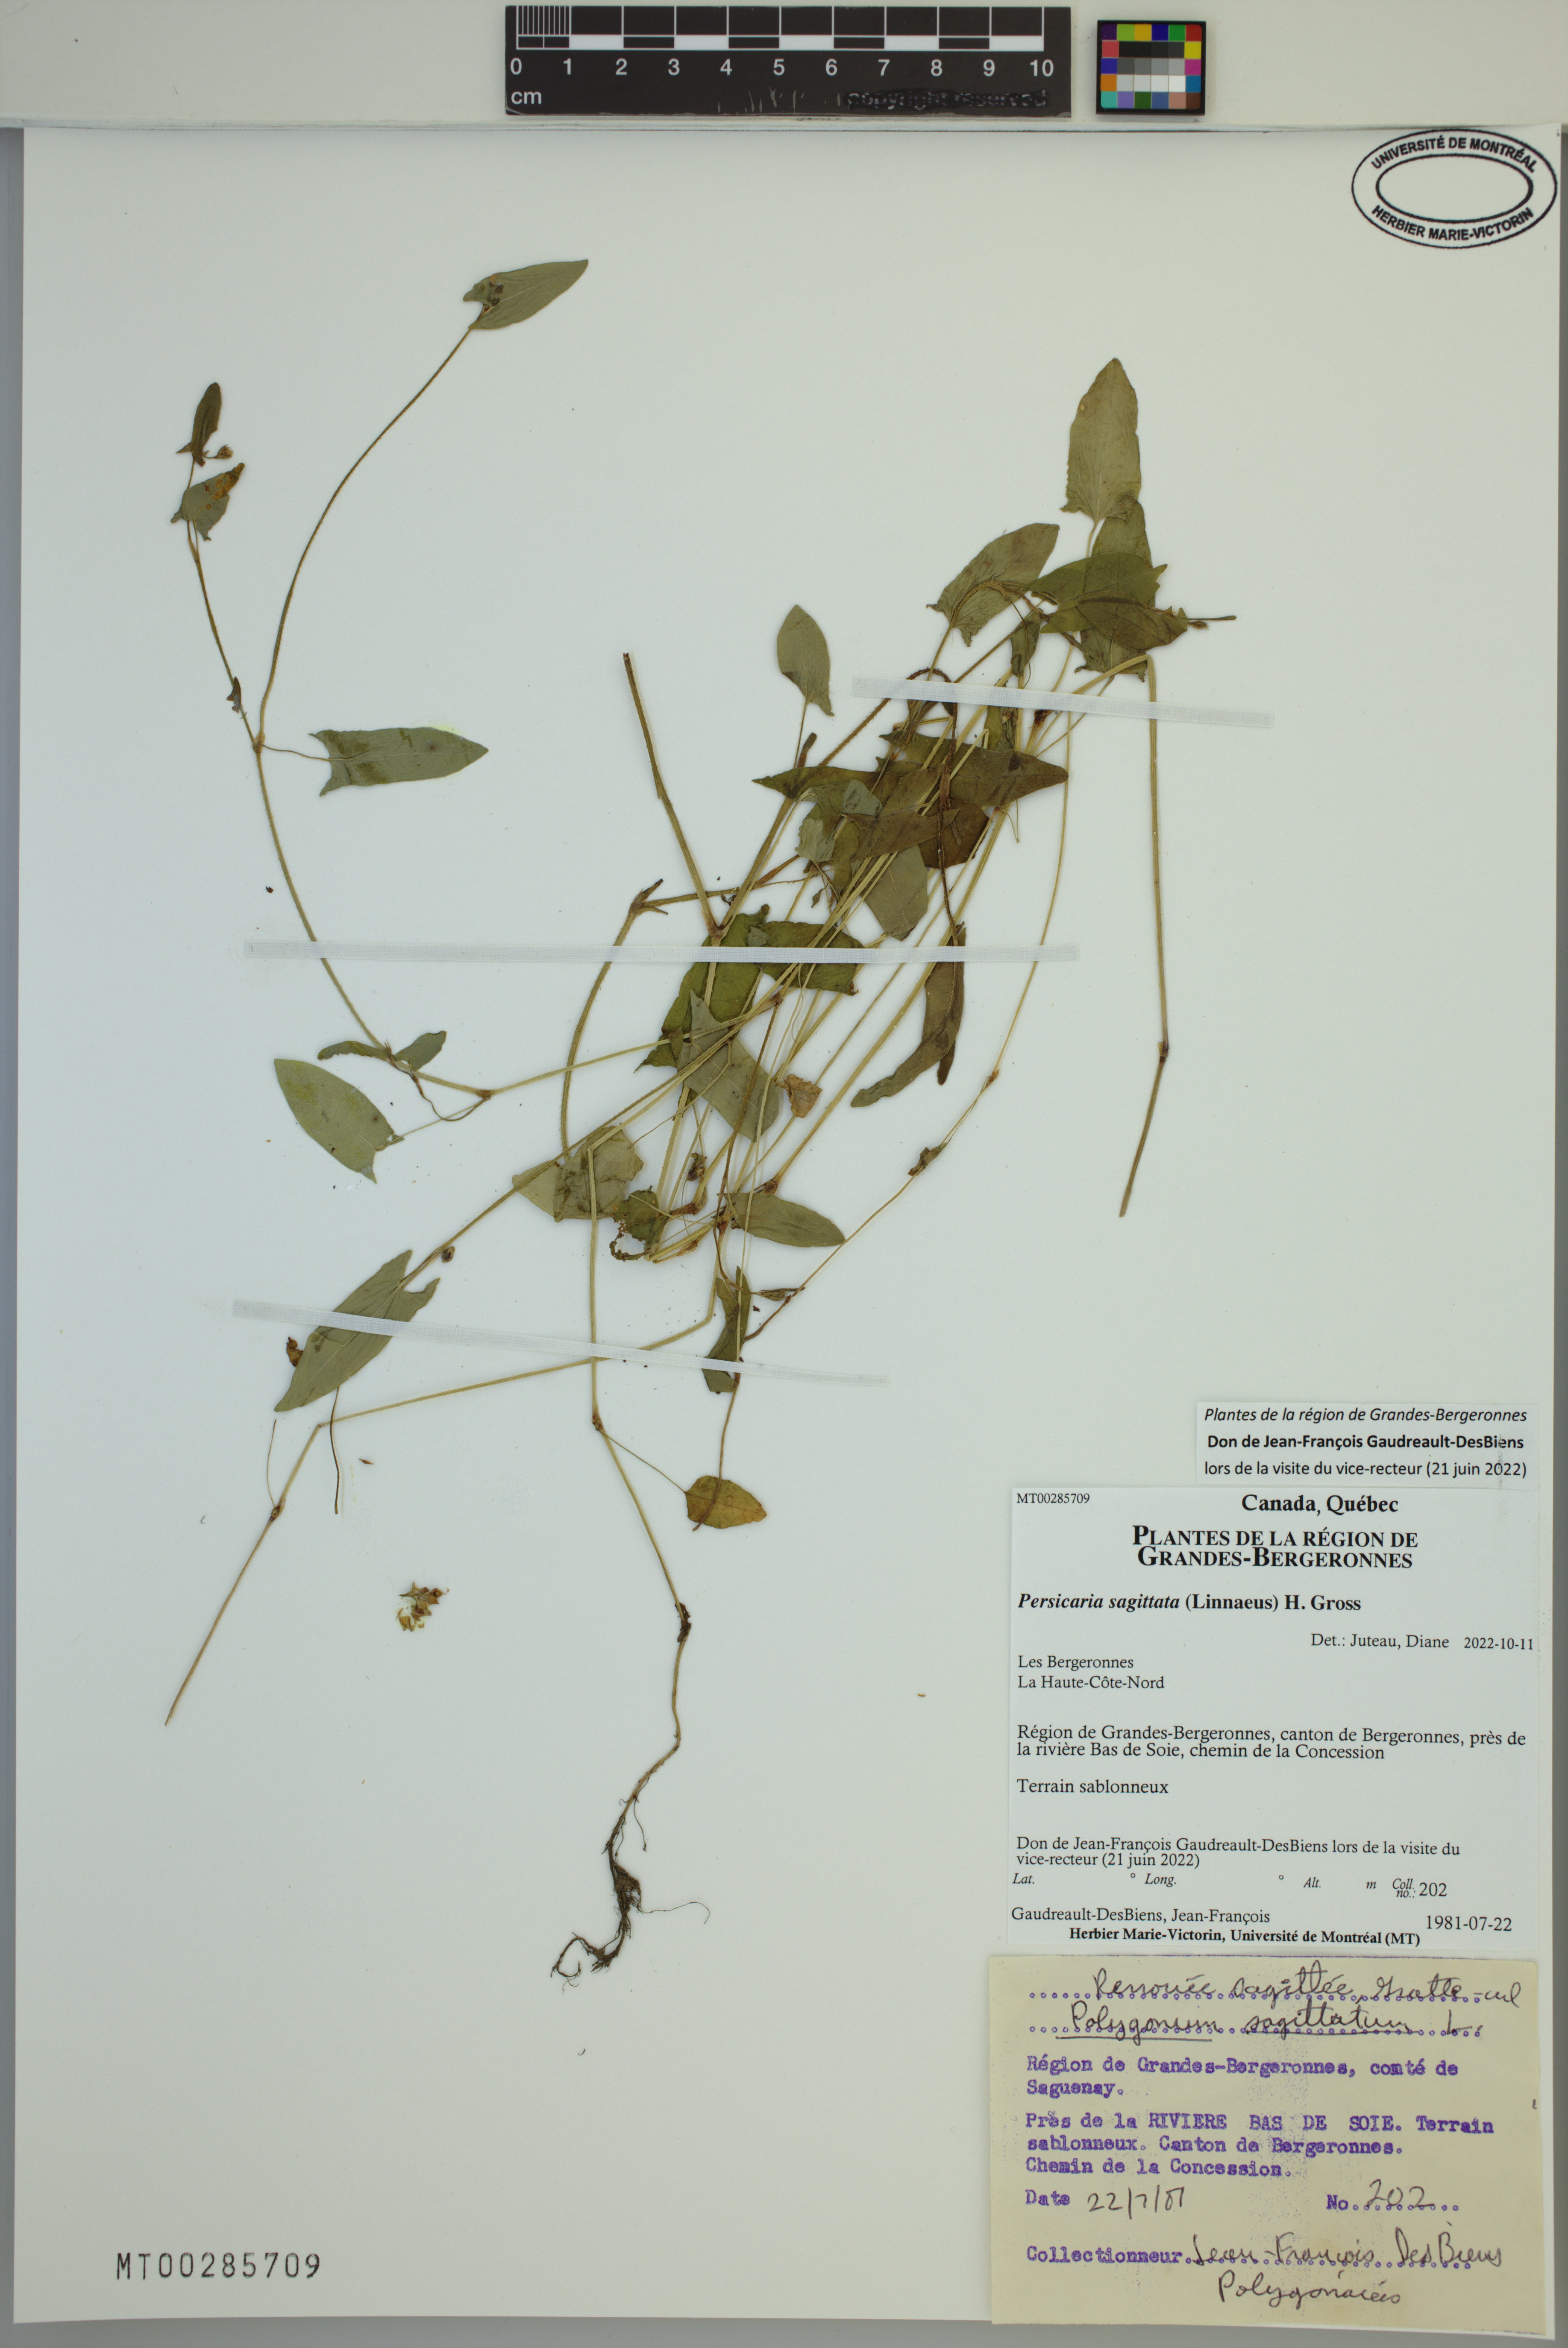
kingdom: Plantae
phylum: Tracheophyta
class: Magnoliopsida
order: Caryophyllales
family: Polygonaceae
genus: Persicaria
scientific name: Persicaria sagittata
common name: American tearthumb
